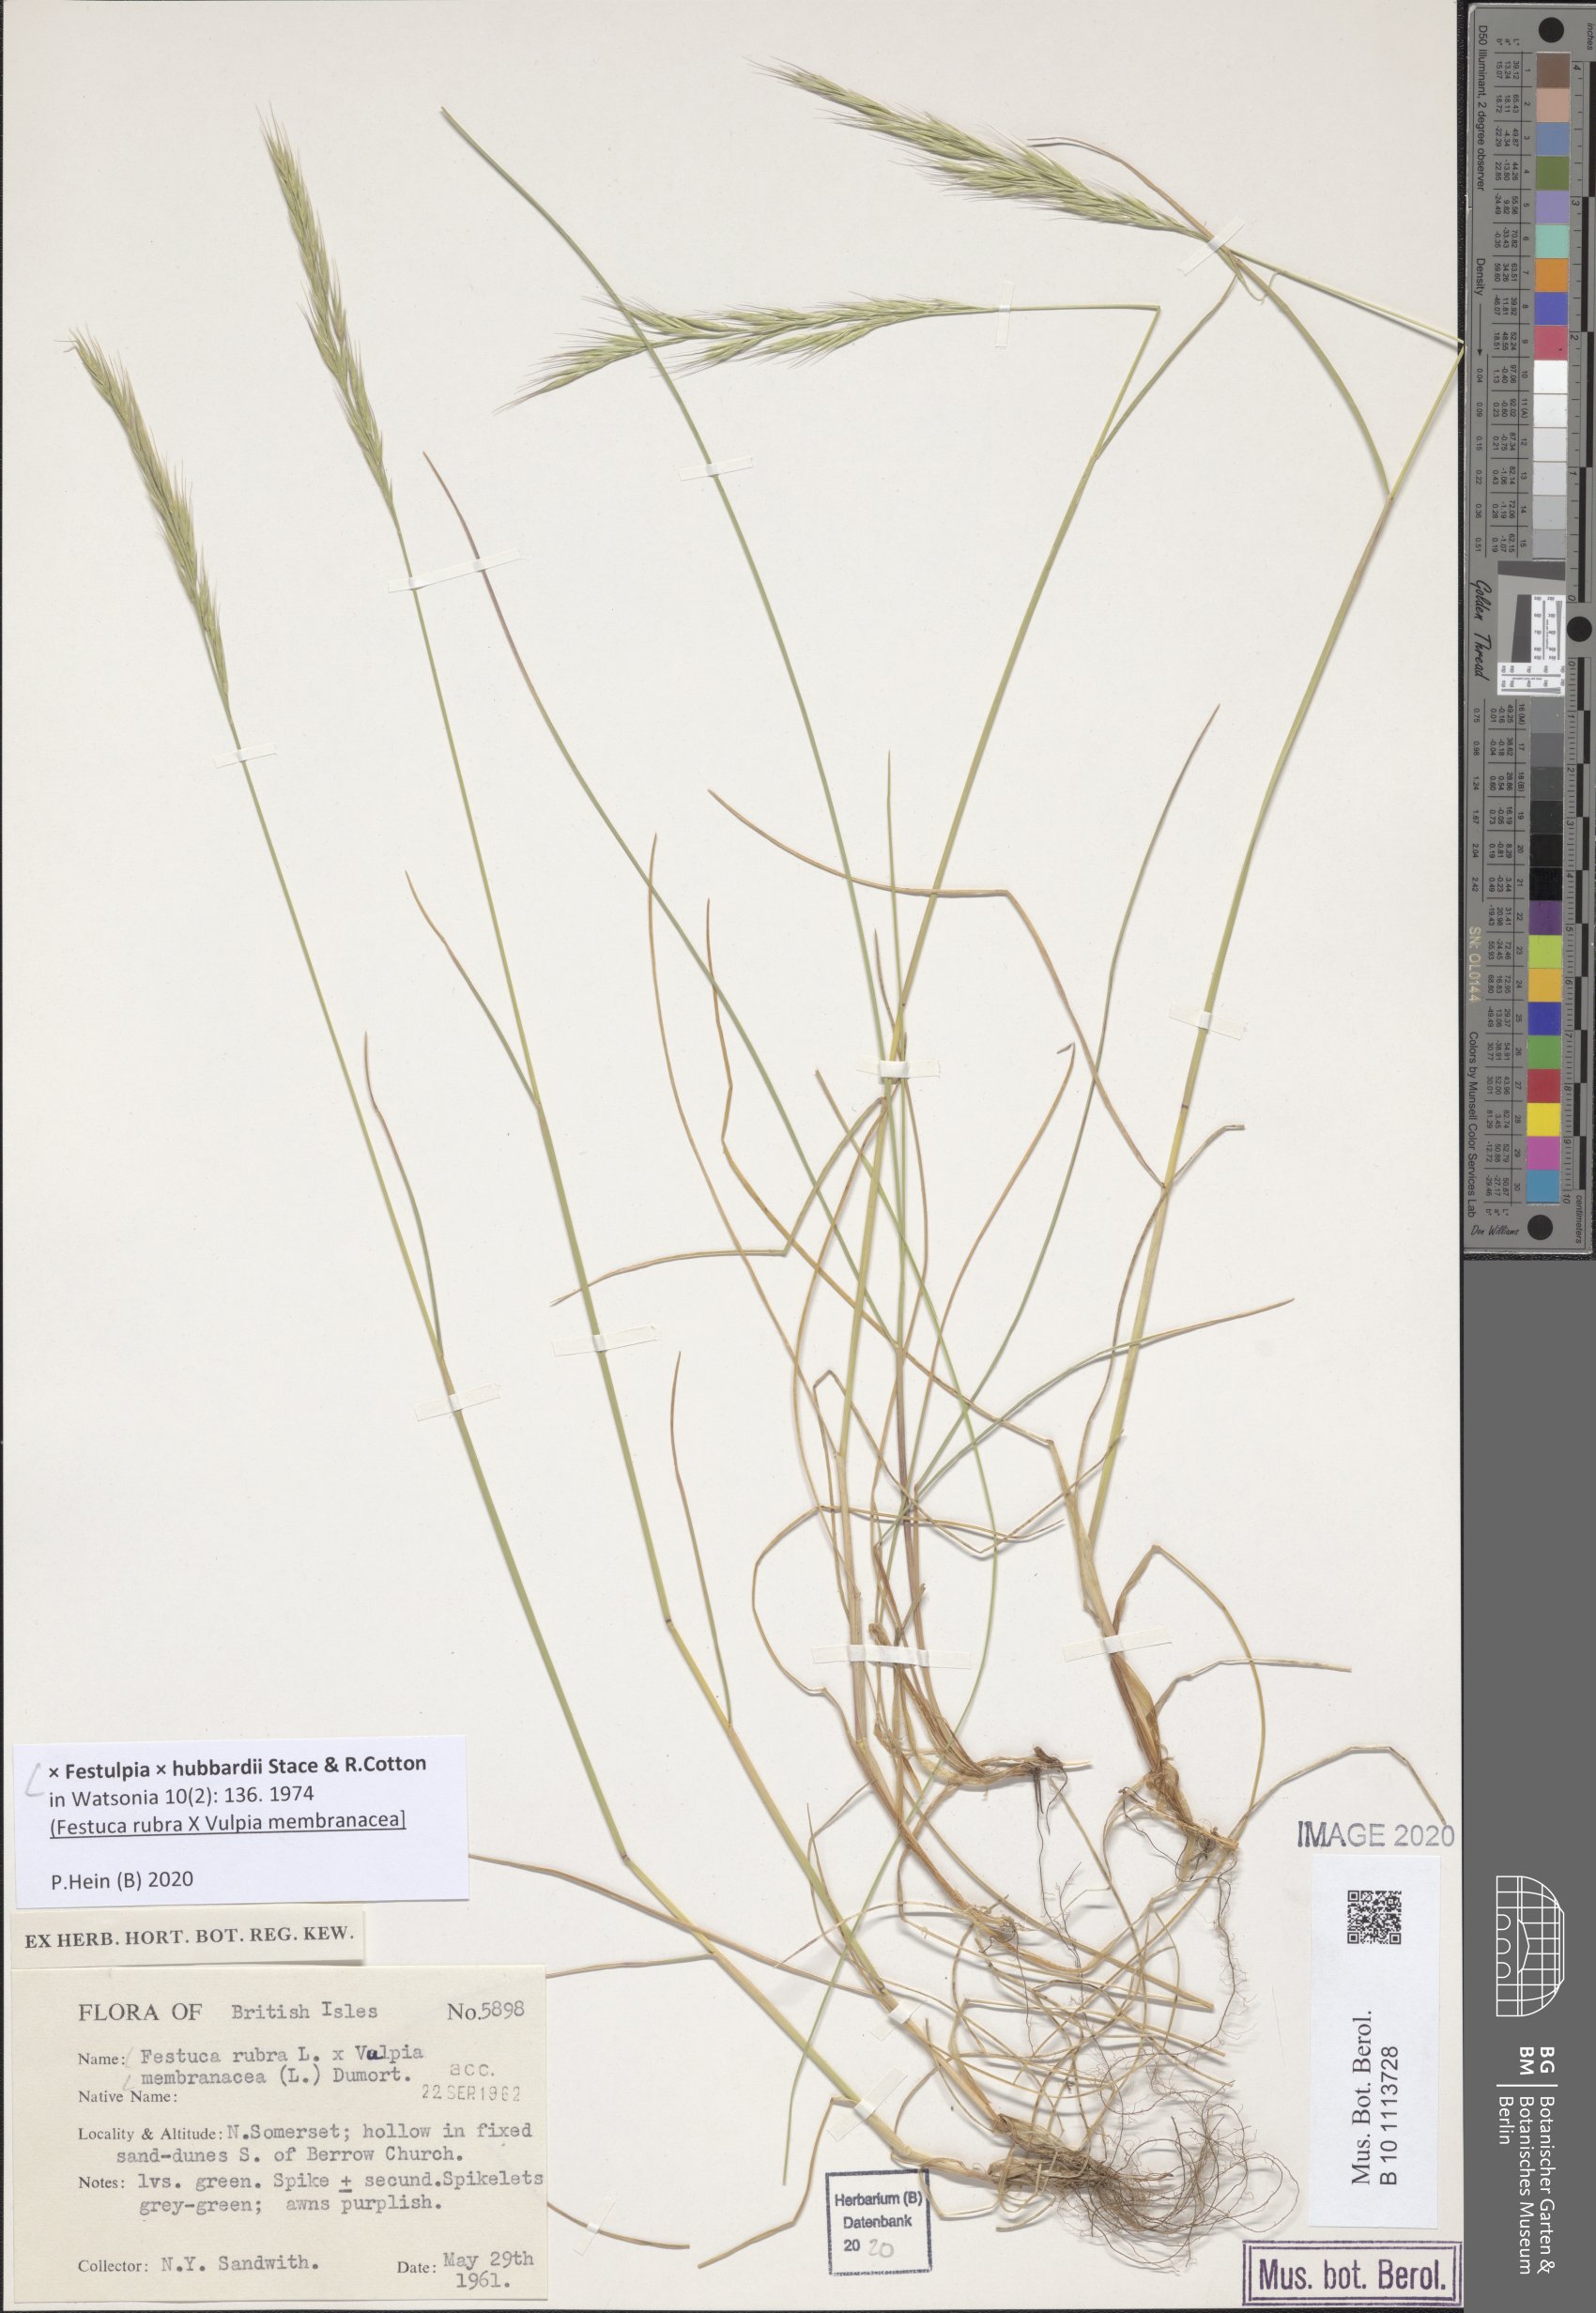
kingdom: Plantae
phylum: Tracheophyta
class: Liliopsida
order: Poales
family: Poaceae
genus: Festulpia
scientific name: Festulpia hubbardii
